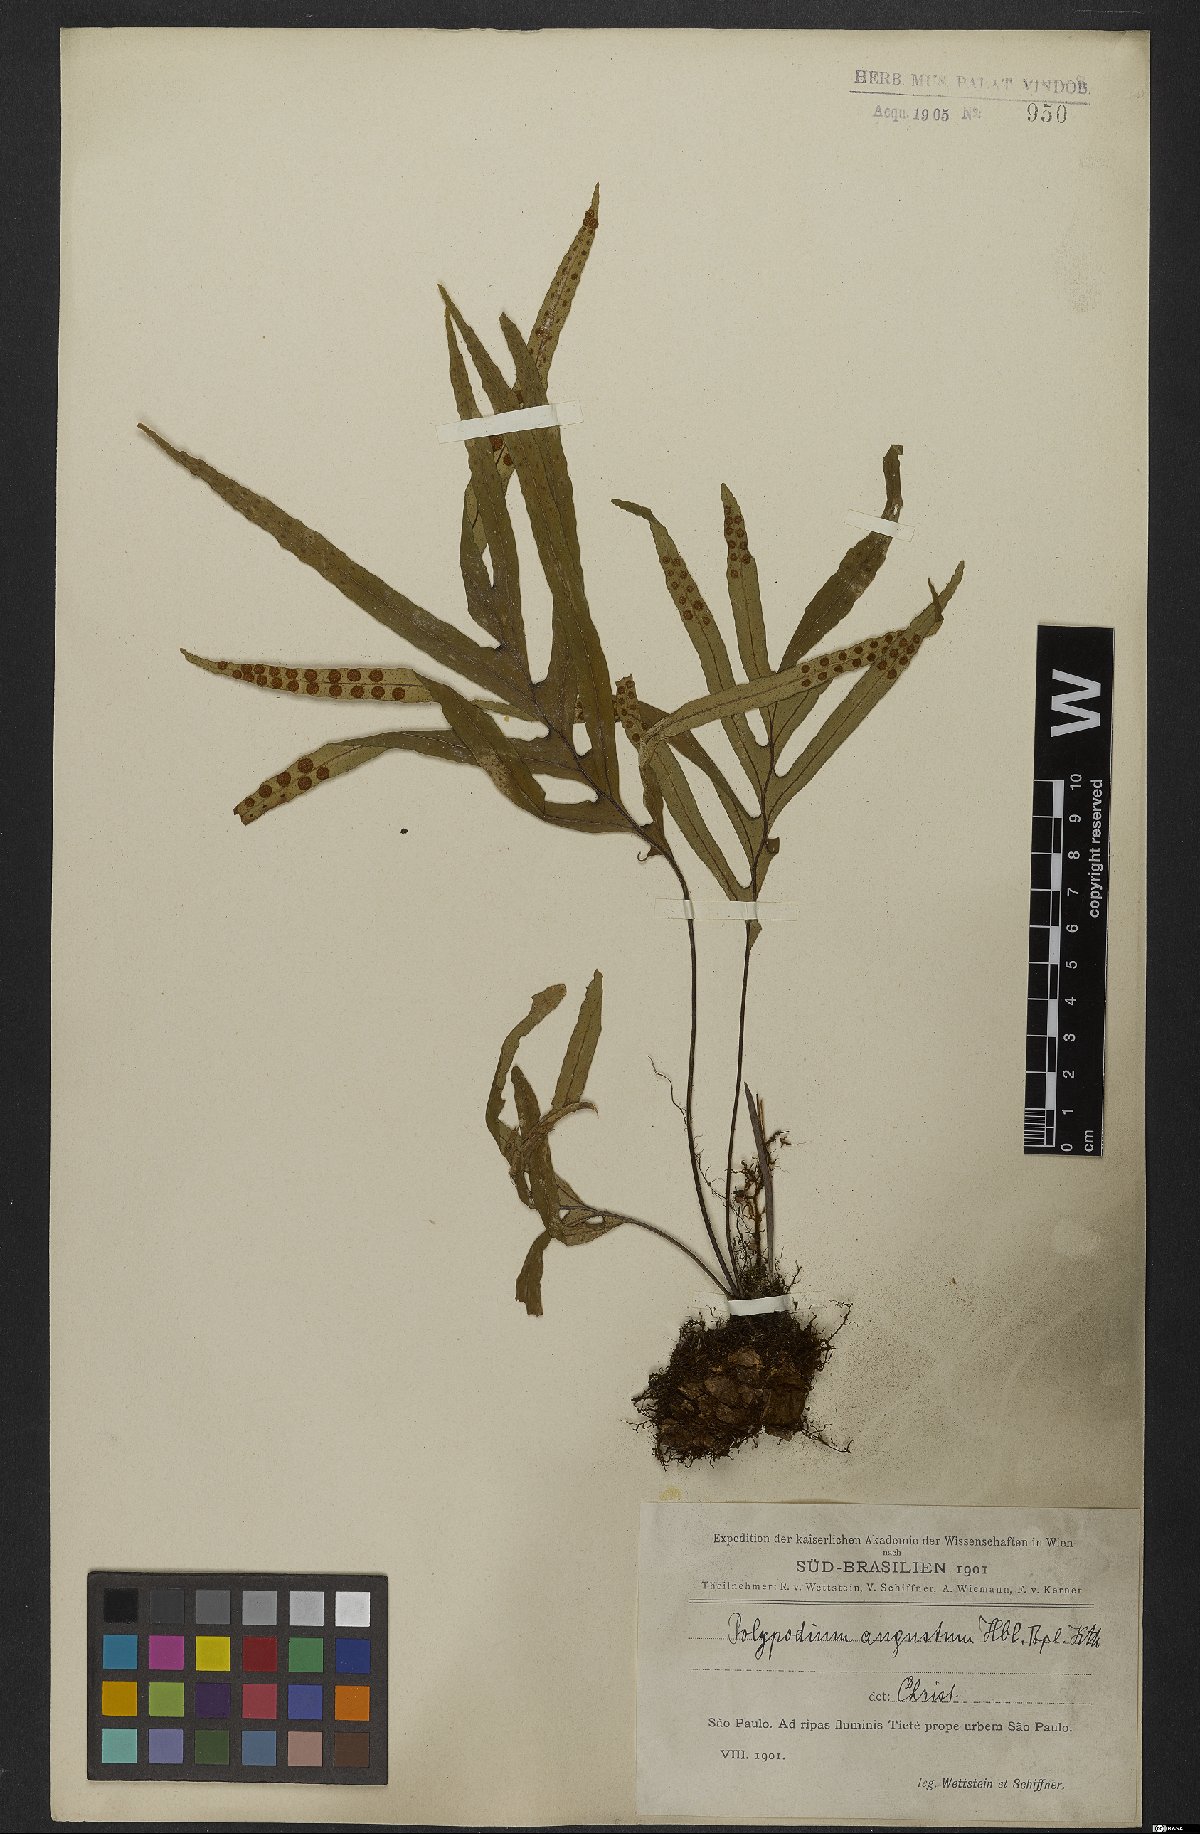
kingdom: Plantae
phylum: Tracheophyta
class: Polypodiopsida
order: Polypodiales
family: Polypodiaceae
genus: Pleopeltis
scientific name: Pleopeltis angusta
